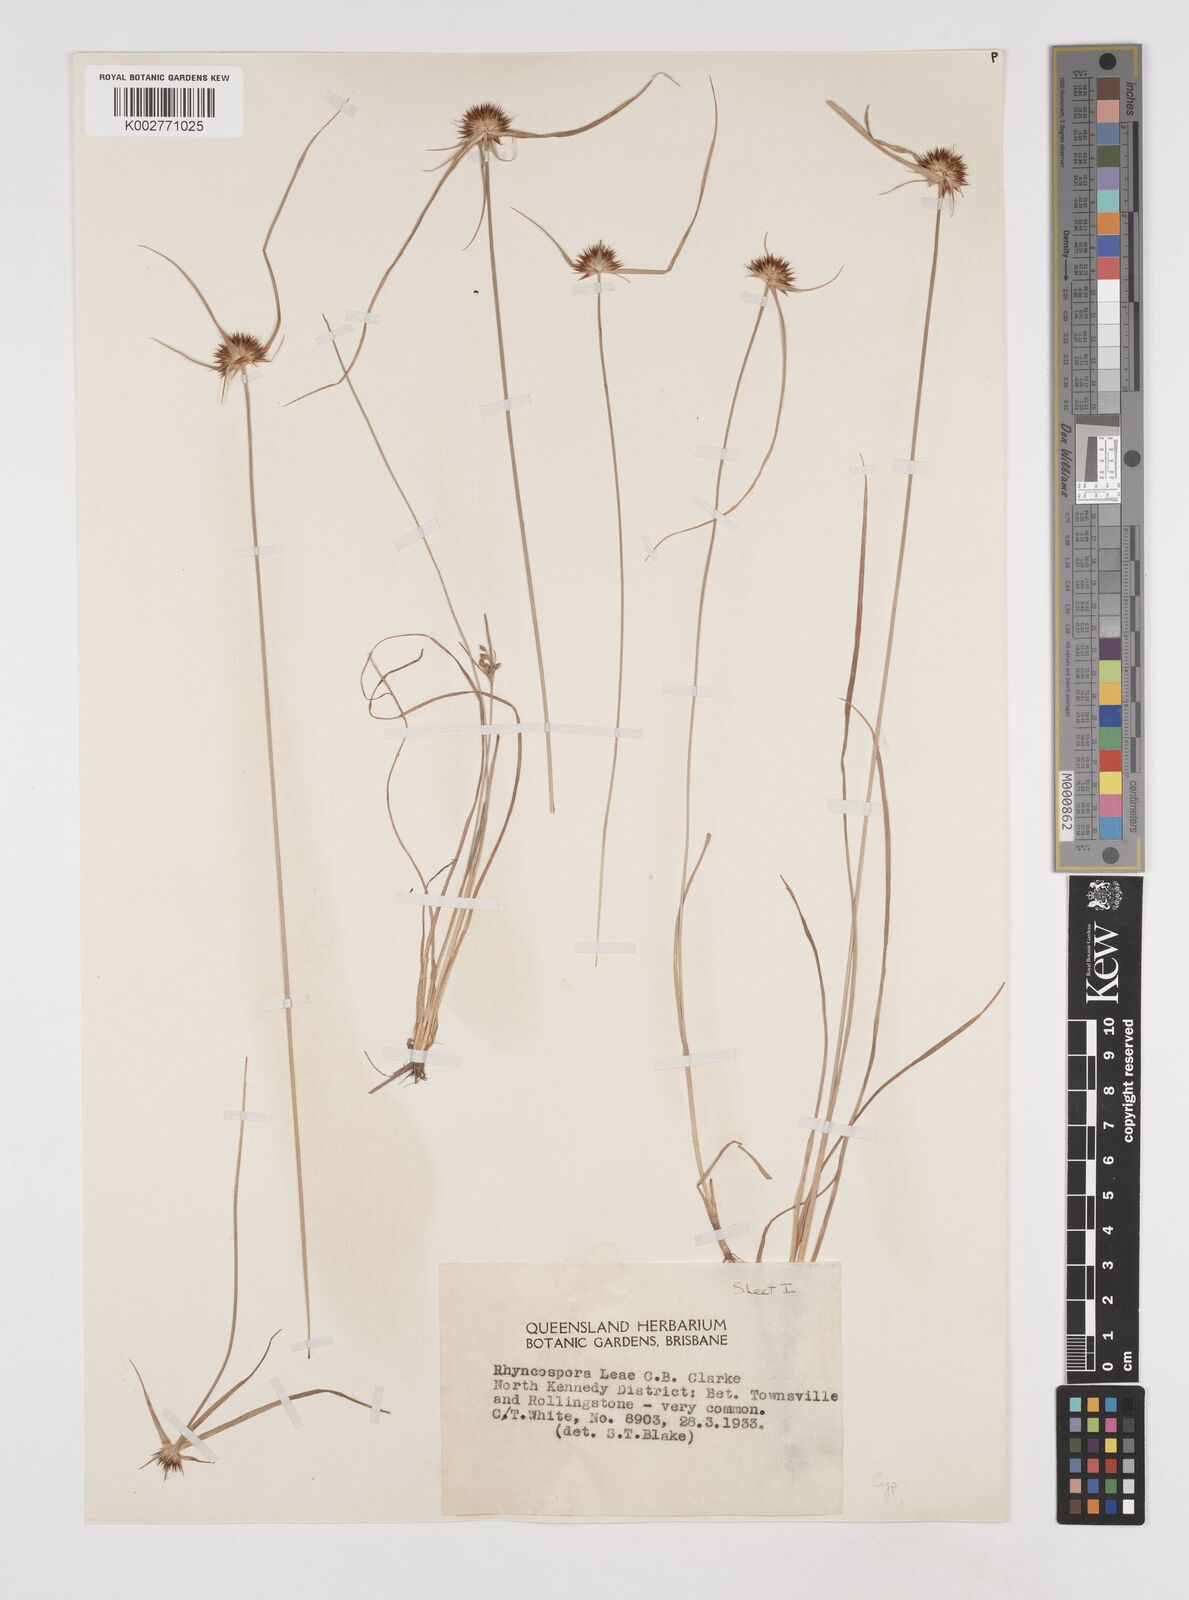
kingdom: Plantae
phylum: Tracheophyta
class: Liliopsida
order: Poales
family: Cyperaceae
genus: Rhynchospora
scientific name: Rhynchospora leae
